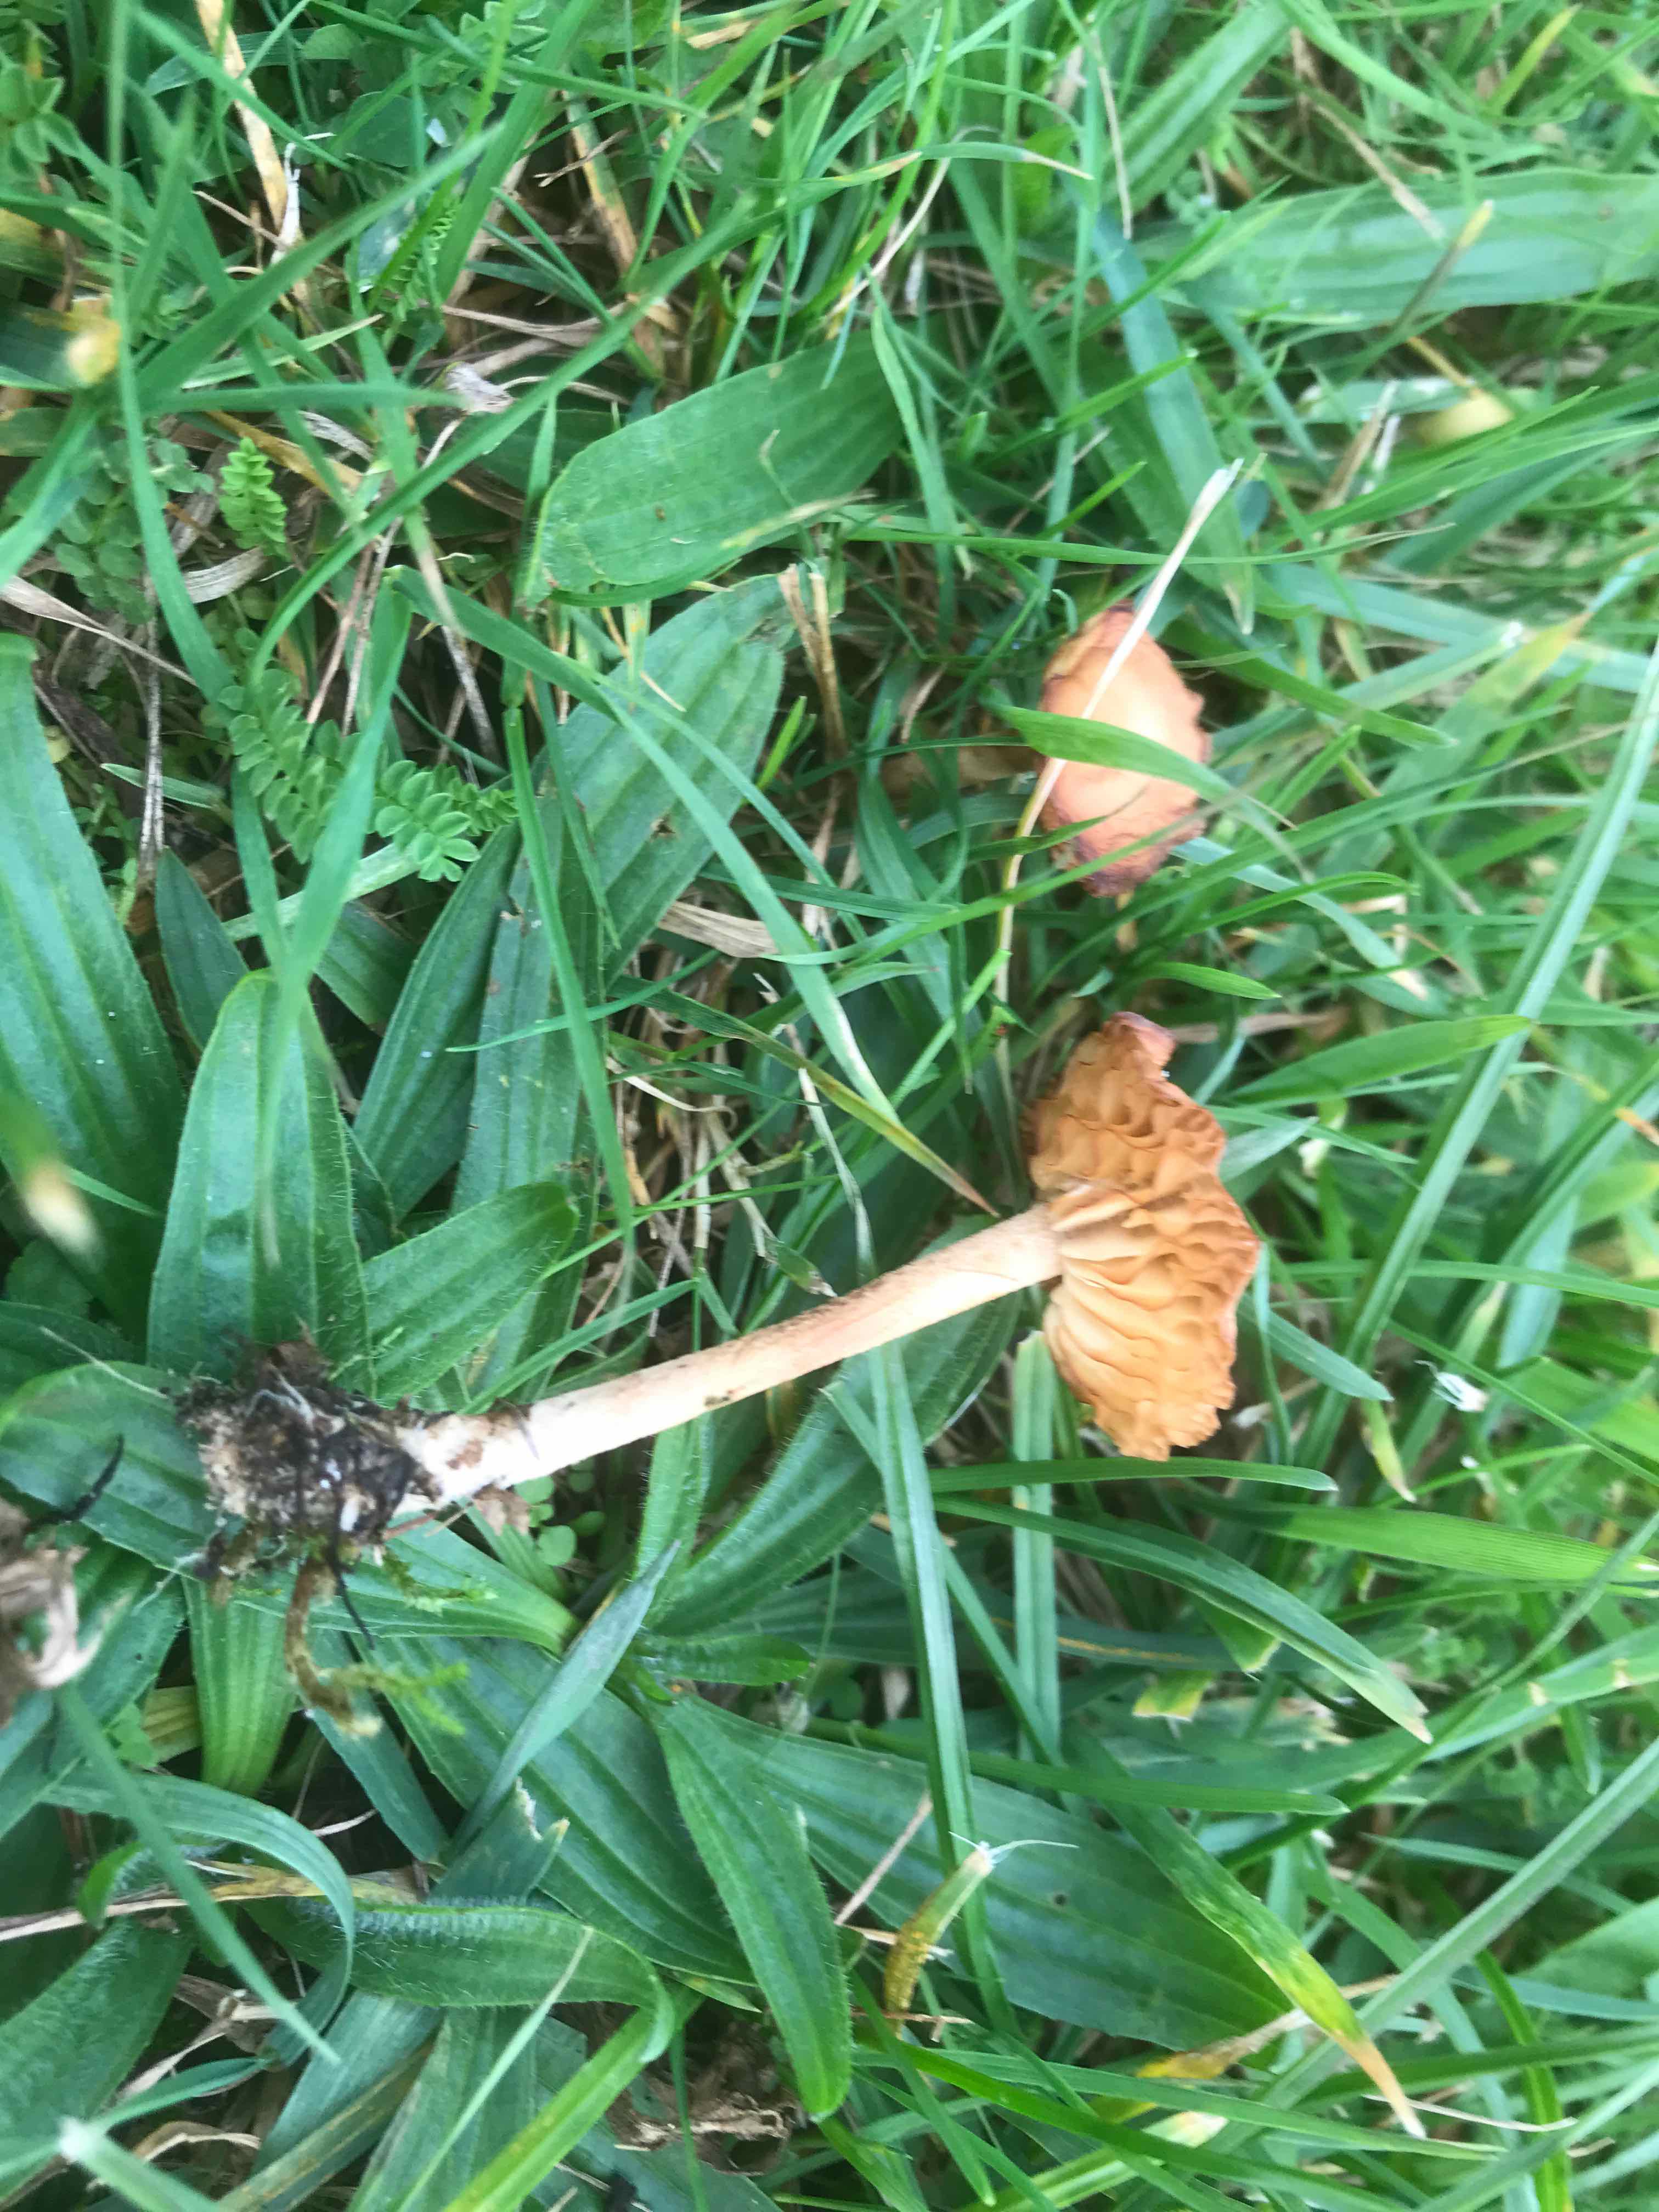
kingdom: Fungi
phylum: Basidiomycota
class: Agaricomycetes
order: Agaricales
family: Marasmiaceae
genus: Marasmius
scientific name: Marasmius oreades
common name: elledans-bruskhat
